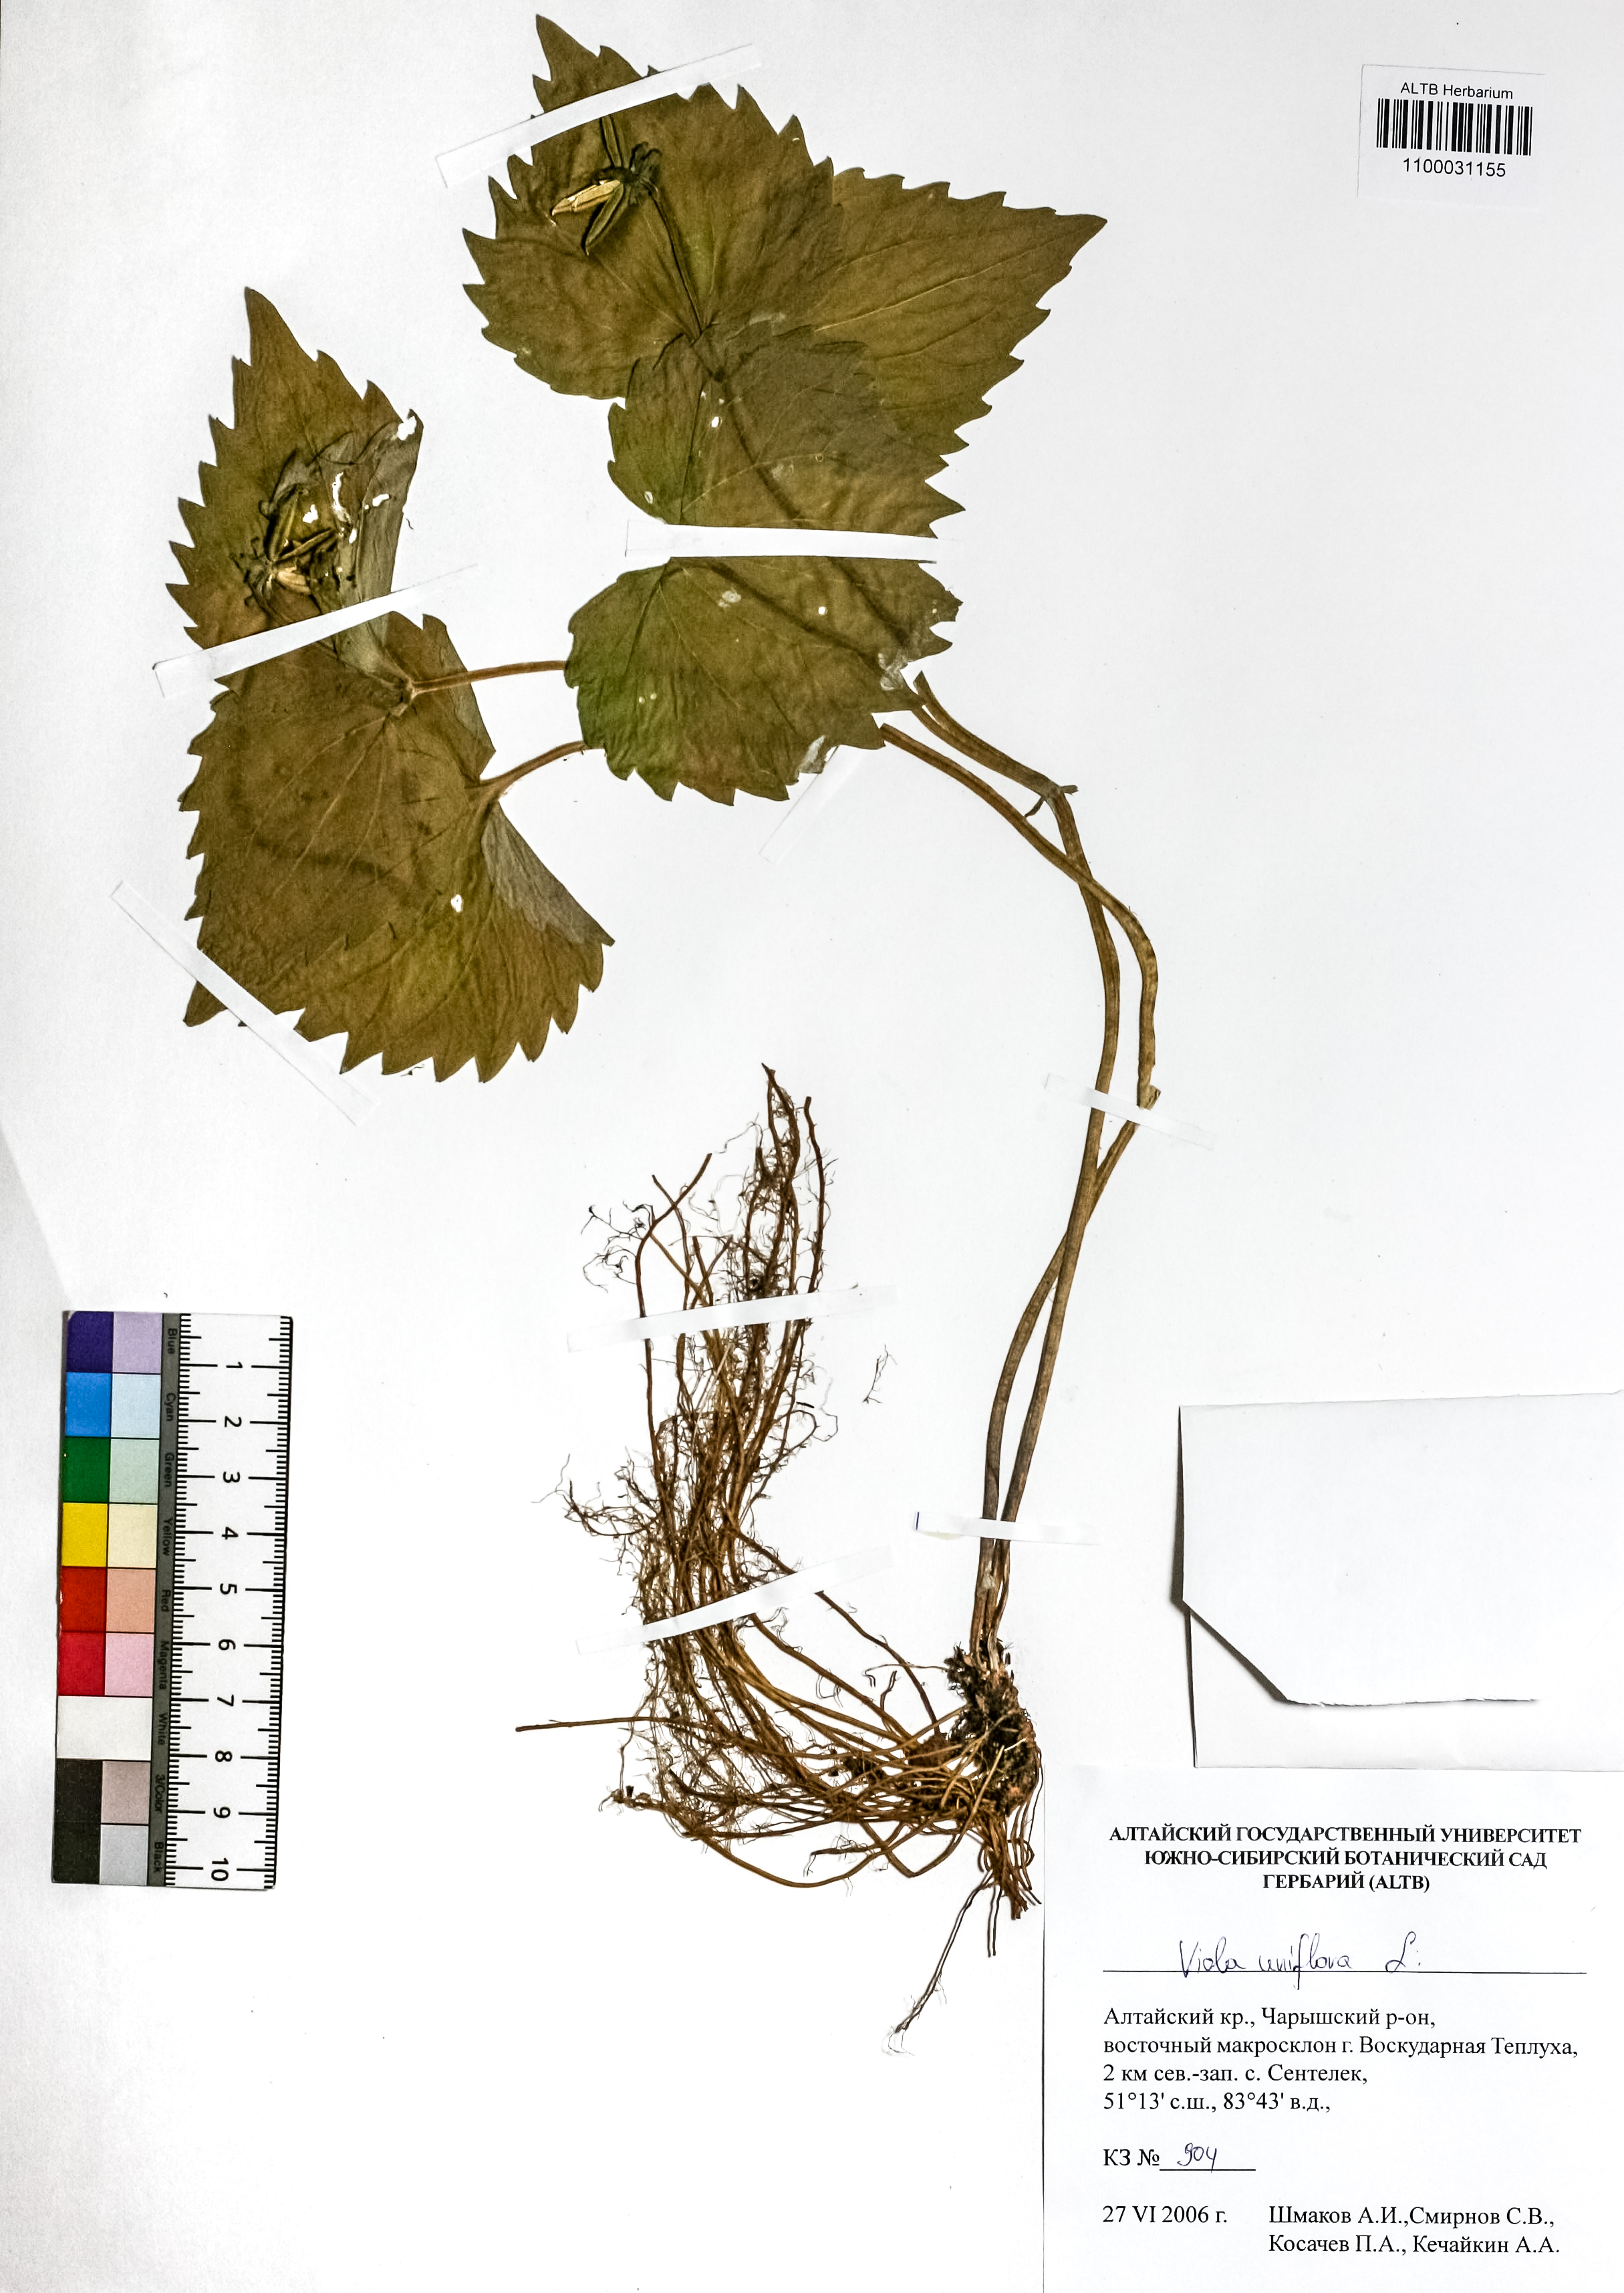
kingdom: Plantae
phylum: Tracheophyta
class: Magnoliopsida
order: Malpighiales
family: Violaceae
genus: Viola
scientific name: Viola uniflora
